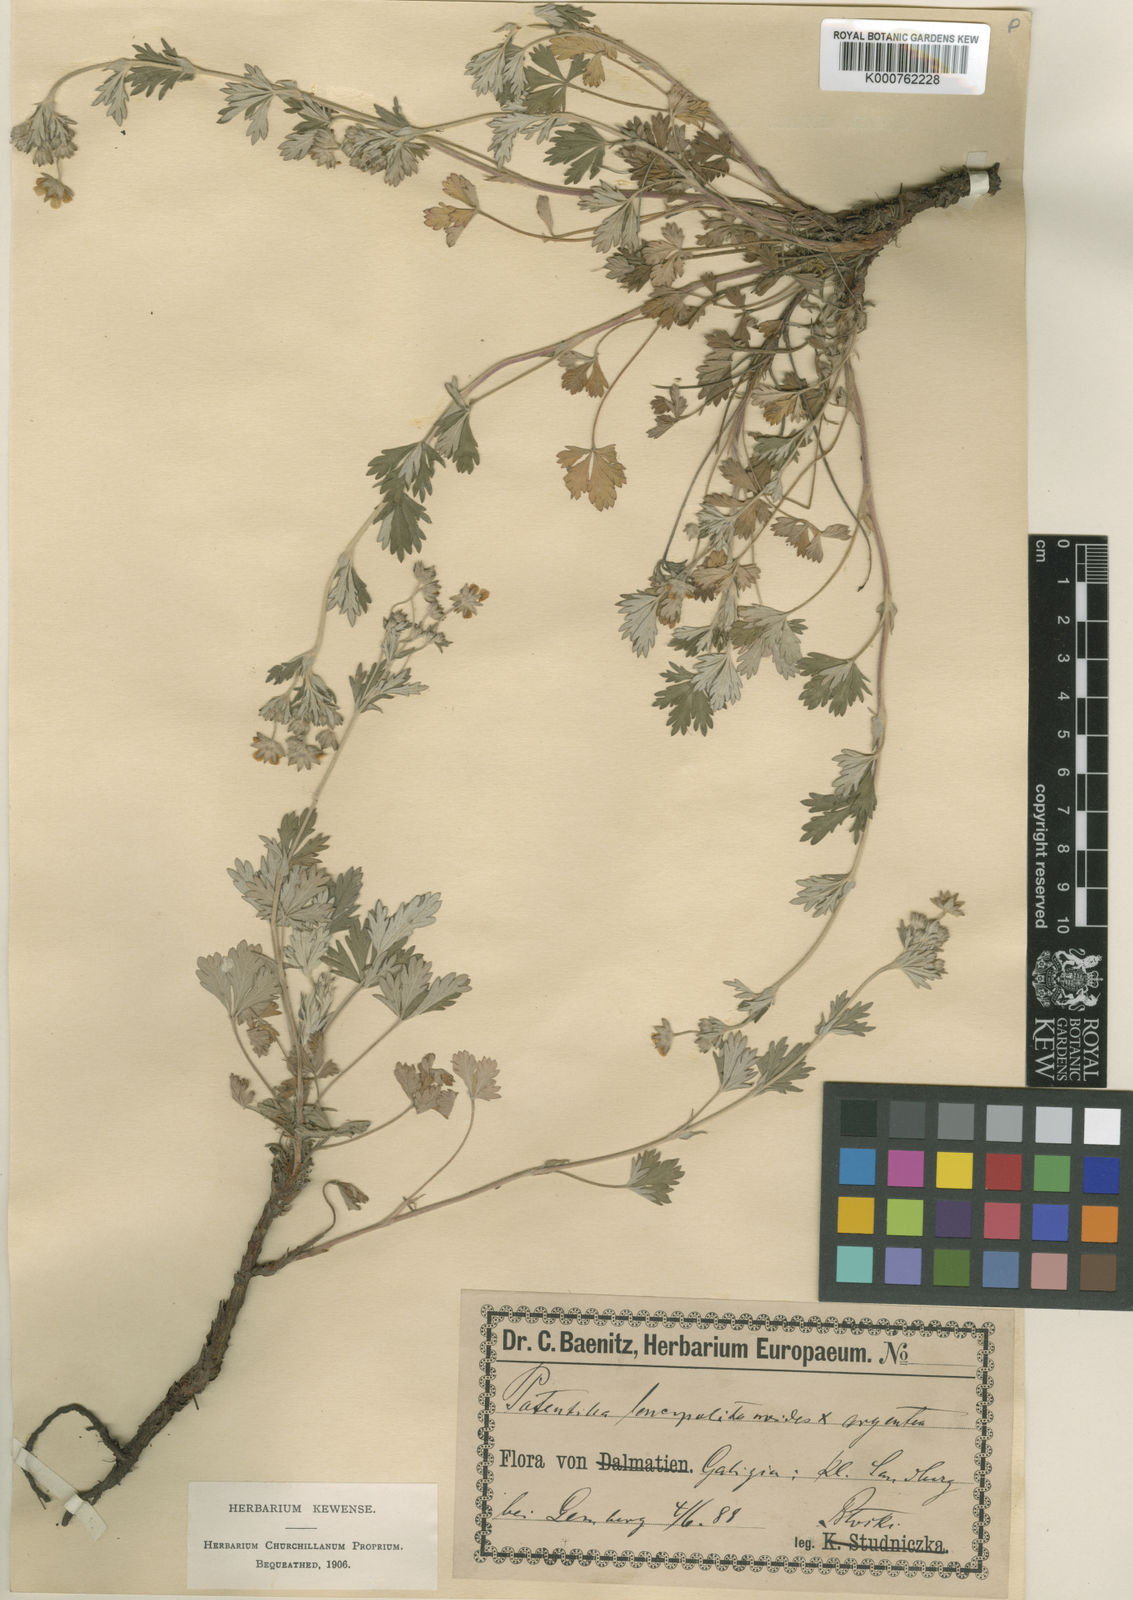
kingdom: Plantae
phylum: Tracheophyta
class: Magnoliopsida
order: Rosales
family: Rosaceae
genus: Potentilla
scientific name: Potentilla argentea
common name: Hoary cinquefoil
